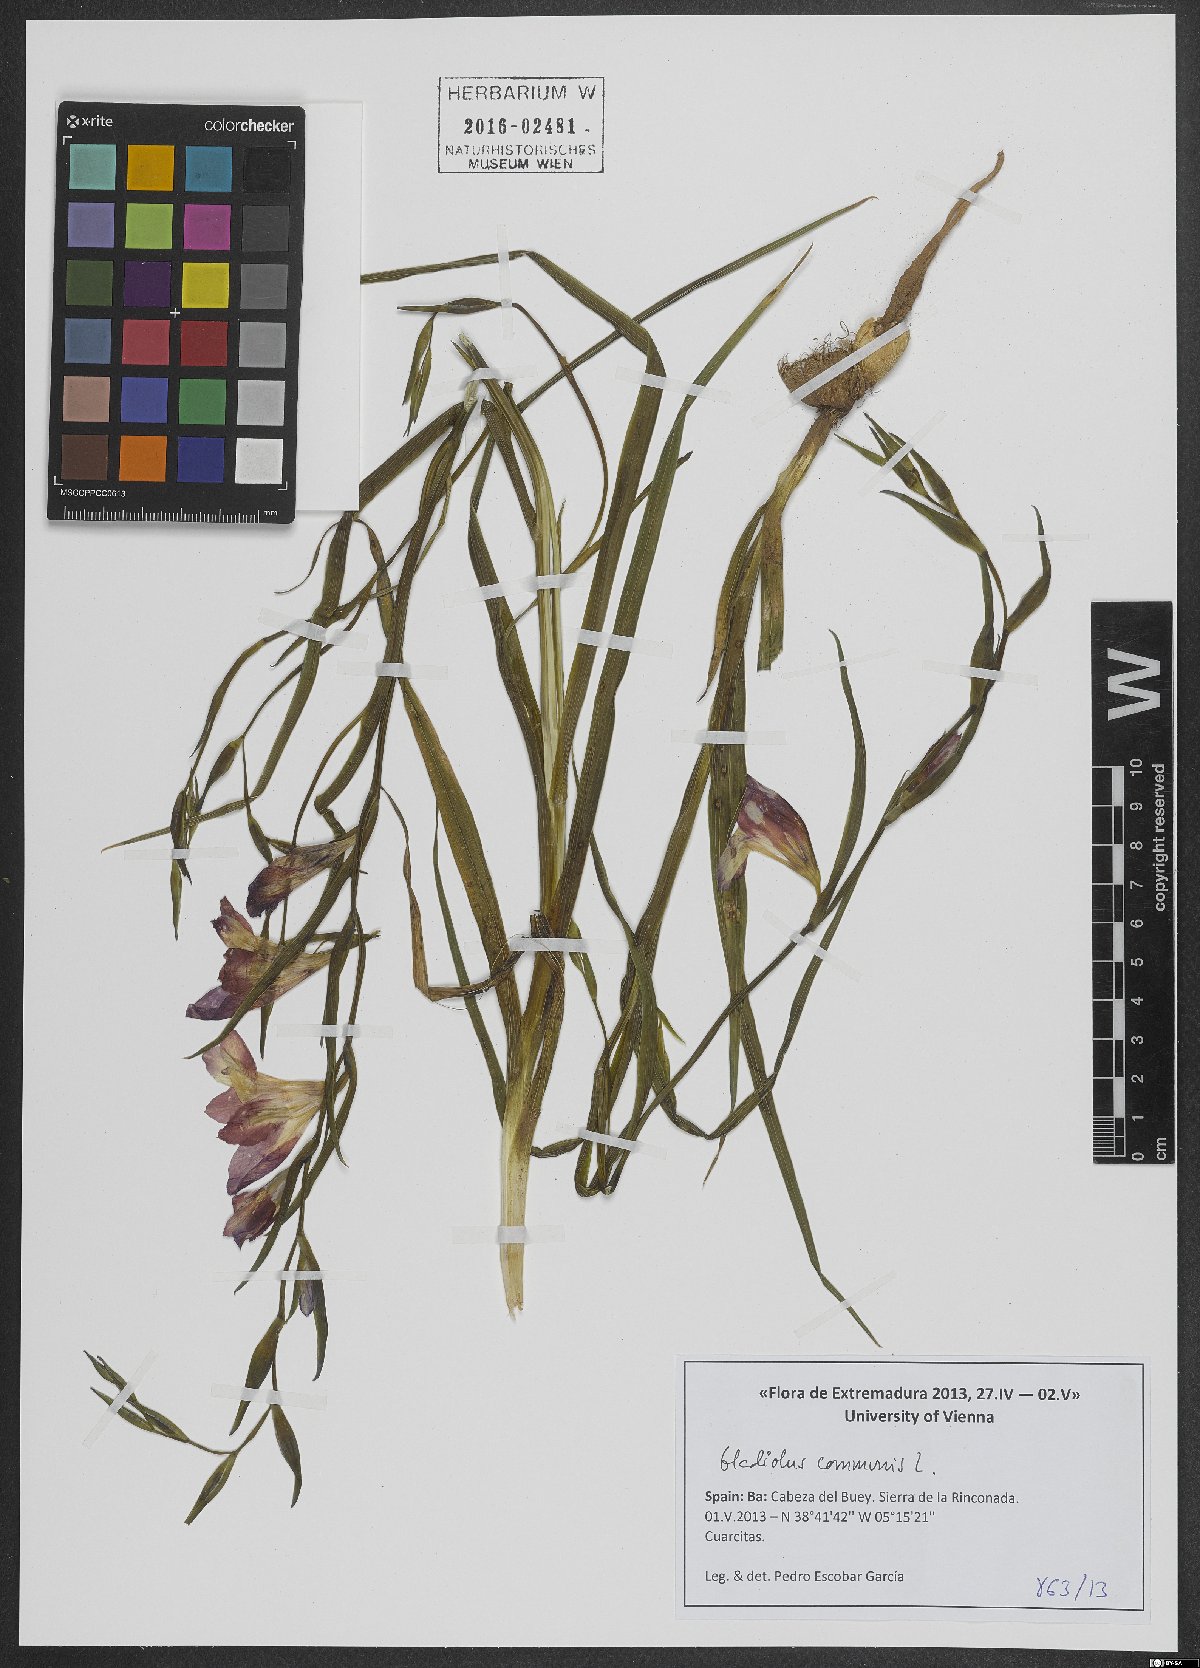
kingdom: Plantae
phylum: Tracheophyta
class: Liliopsida
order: Asparagales
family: Iridaceae
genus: Gladiolus
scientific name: Gladiolus communis
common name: Eastern gladiolus
